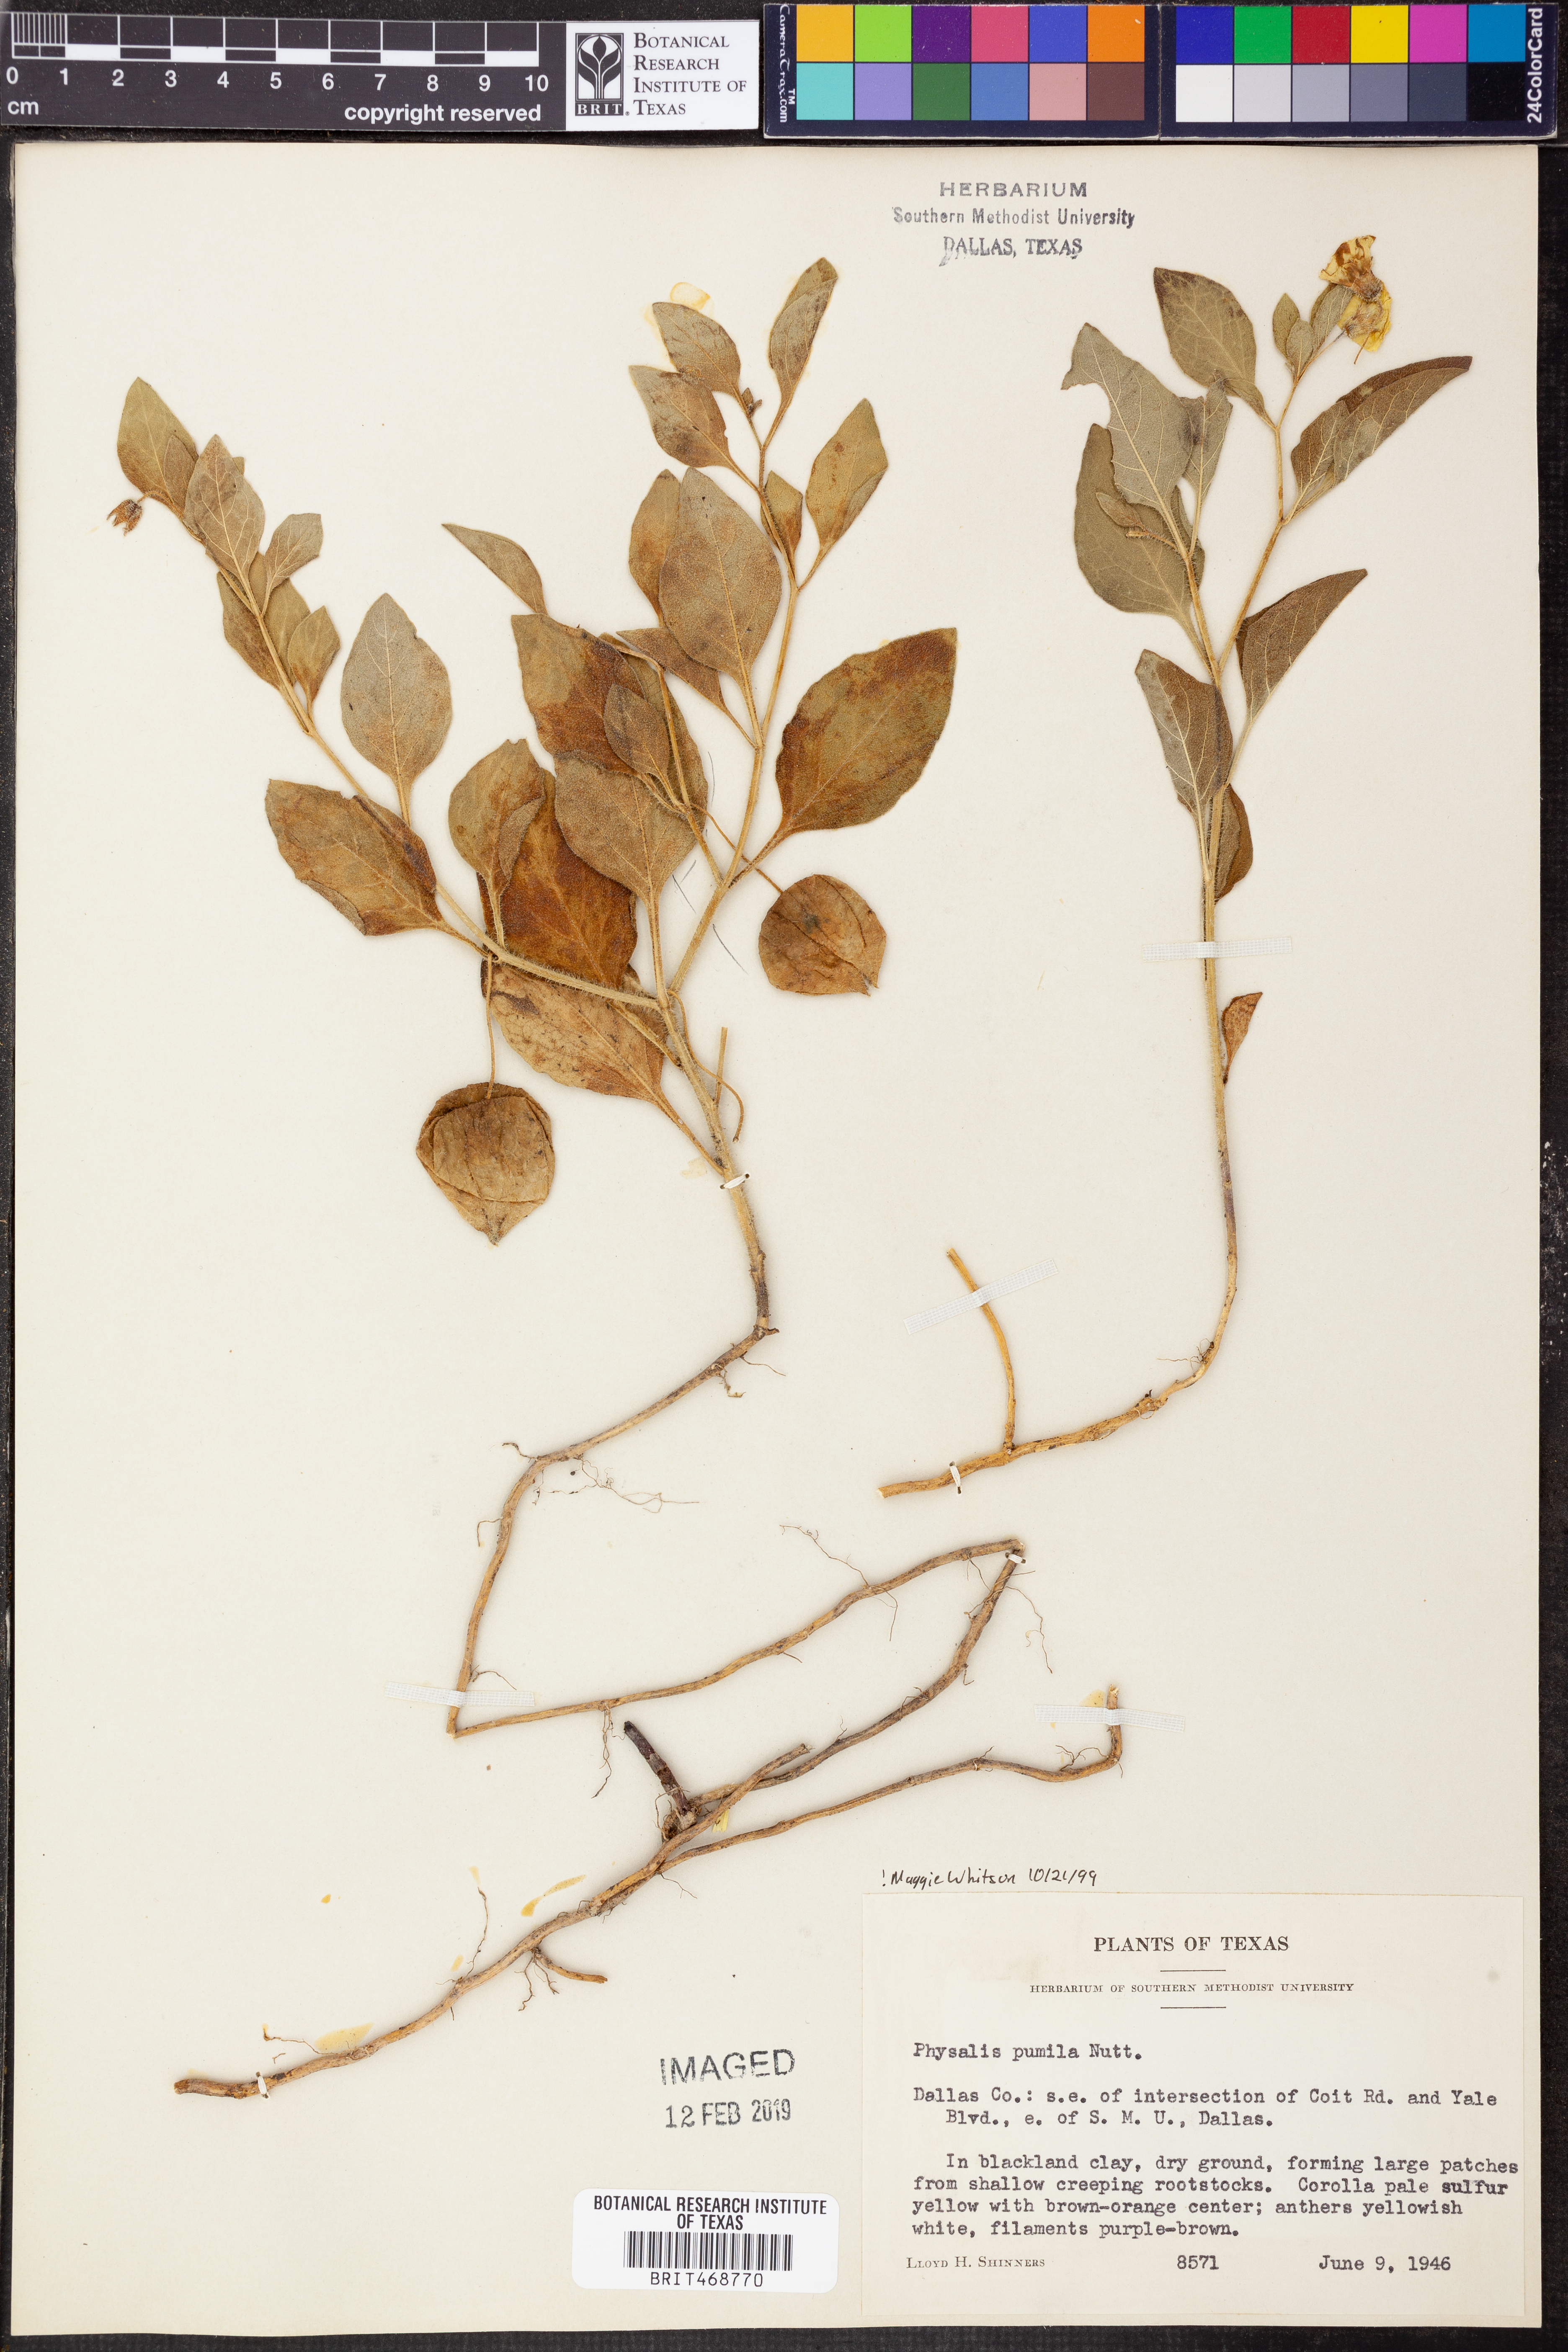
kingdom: Plantae
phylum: Tracheophyta
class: Magnoliopsida
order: Solanales
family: Solanaceae
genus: Physalis
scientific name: Physalis pumila
